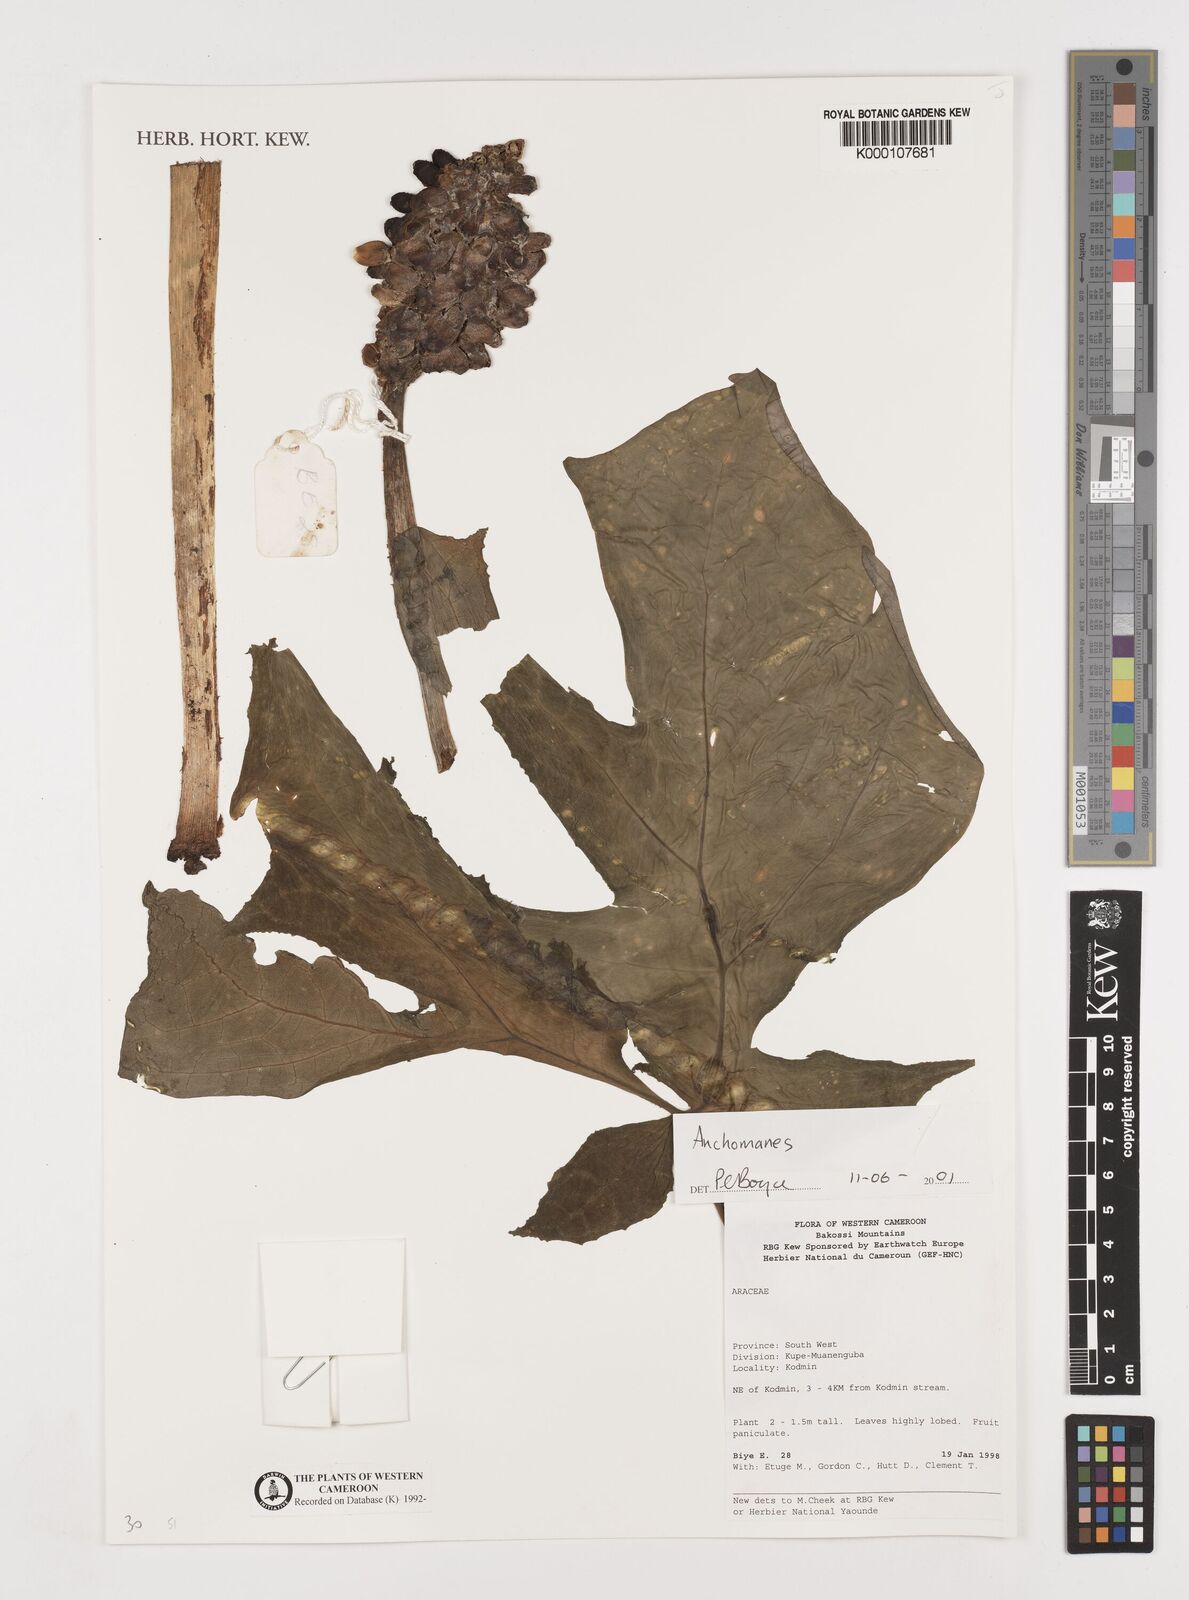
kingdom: Plantae
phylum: Tracheophyta
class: Liliopsida
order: Alismatales
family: Araceae
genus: Anchomanes
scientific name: Anchomanes
